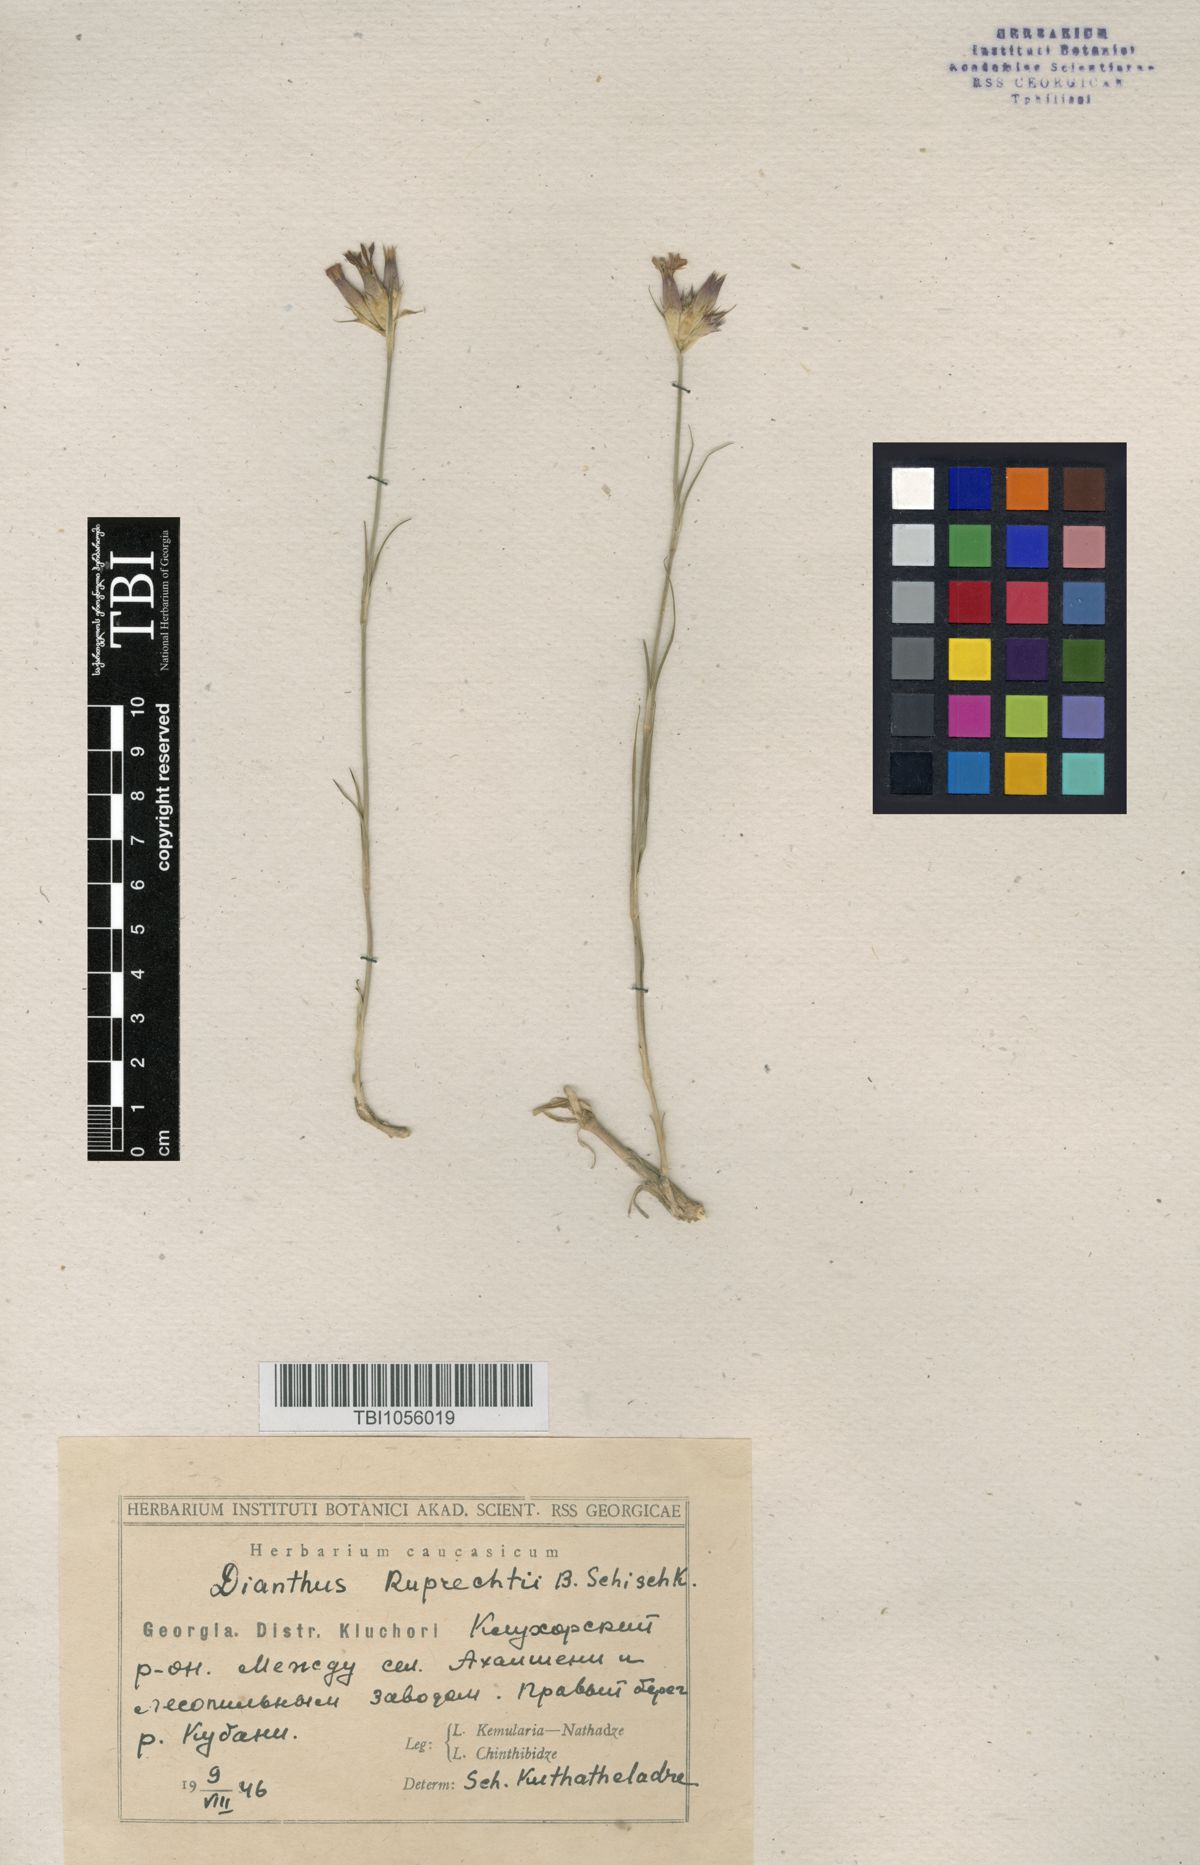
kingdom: Plantae
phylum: Tracheophyta
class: Magnoliopsida
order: Caryophyllales
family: Caryophyllaceae
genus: Dianthus
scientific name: Dianthus ruprechtii
